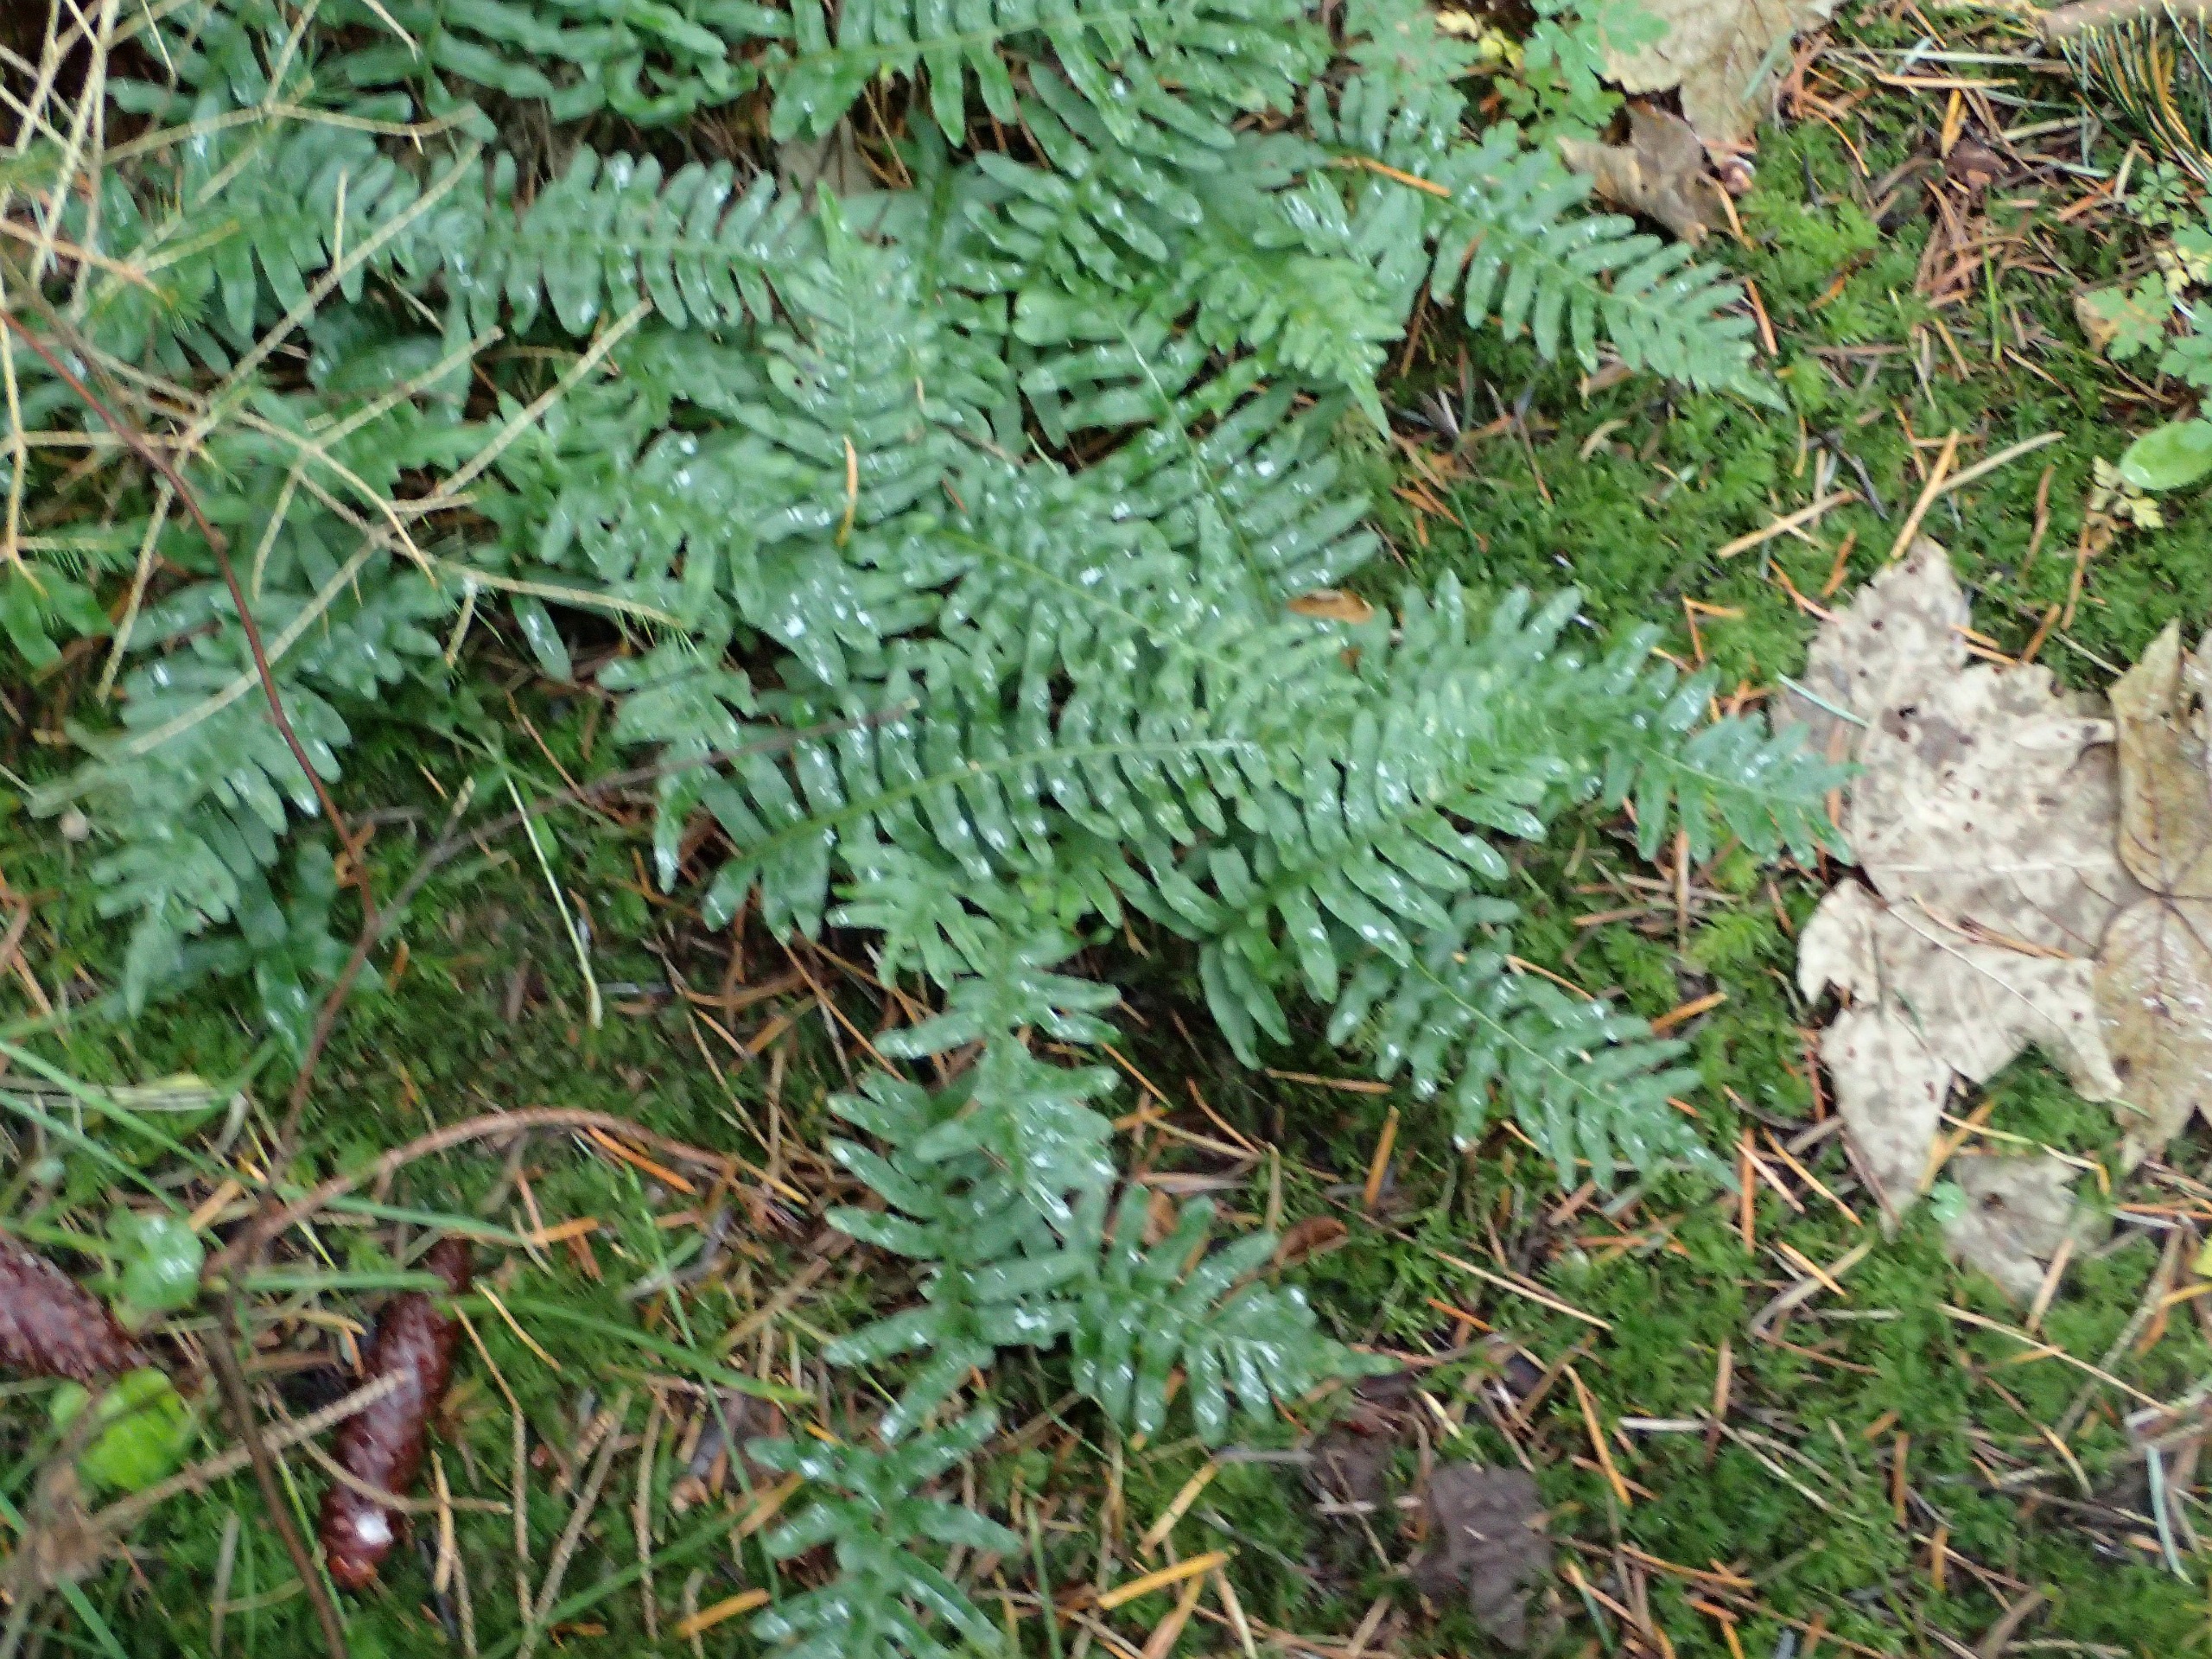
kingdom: Plantae
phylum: Tracheophyta
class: Polypodiopsida
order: Polypodiales
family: Polypodiaceae
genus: Polypodium
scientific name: Polypodium vulgare
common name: Almindelig engelsød
